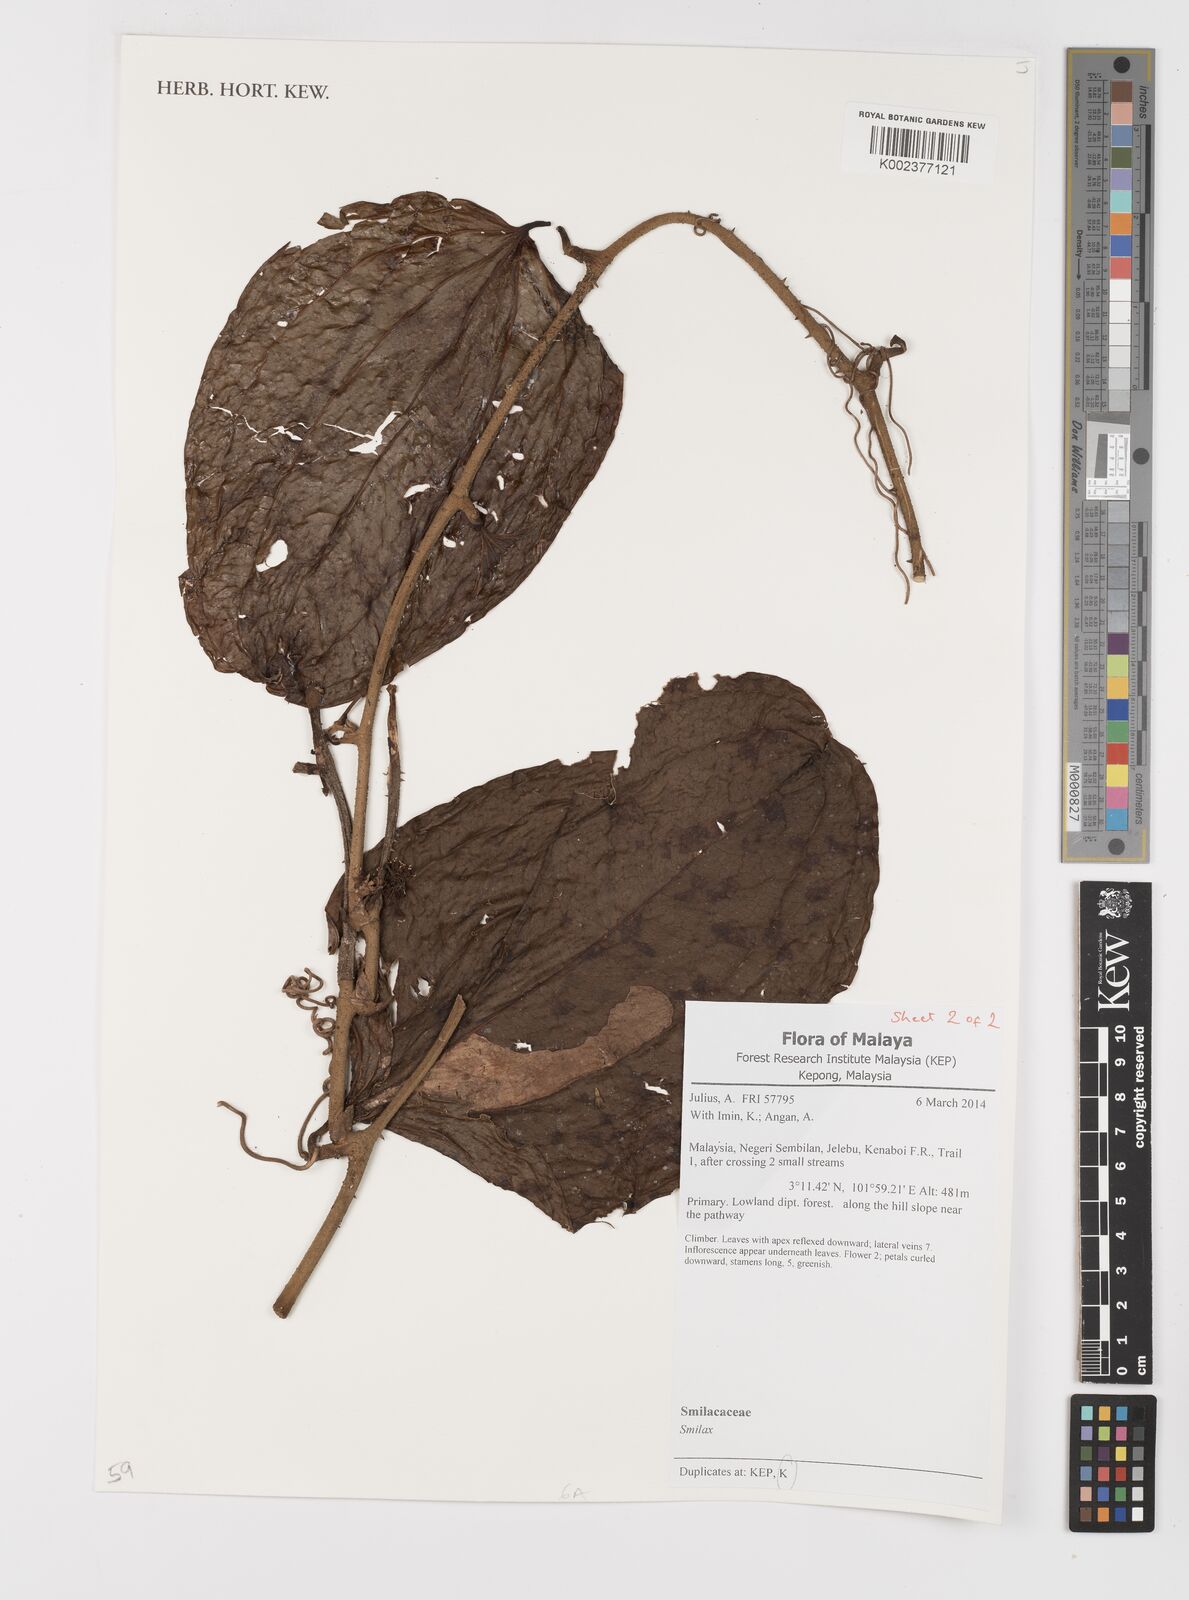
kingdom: Plantae
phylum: Tracheophyta
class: Liliopsida
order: Liliales
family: Smilacaceae
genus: Smilax
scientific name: Smilax
